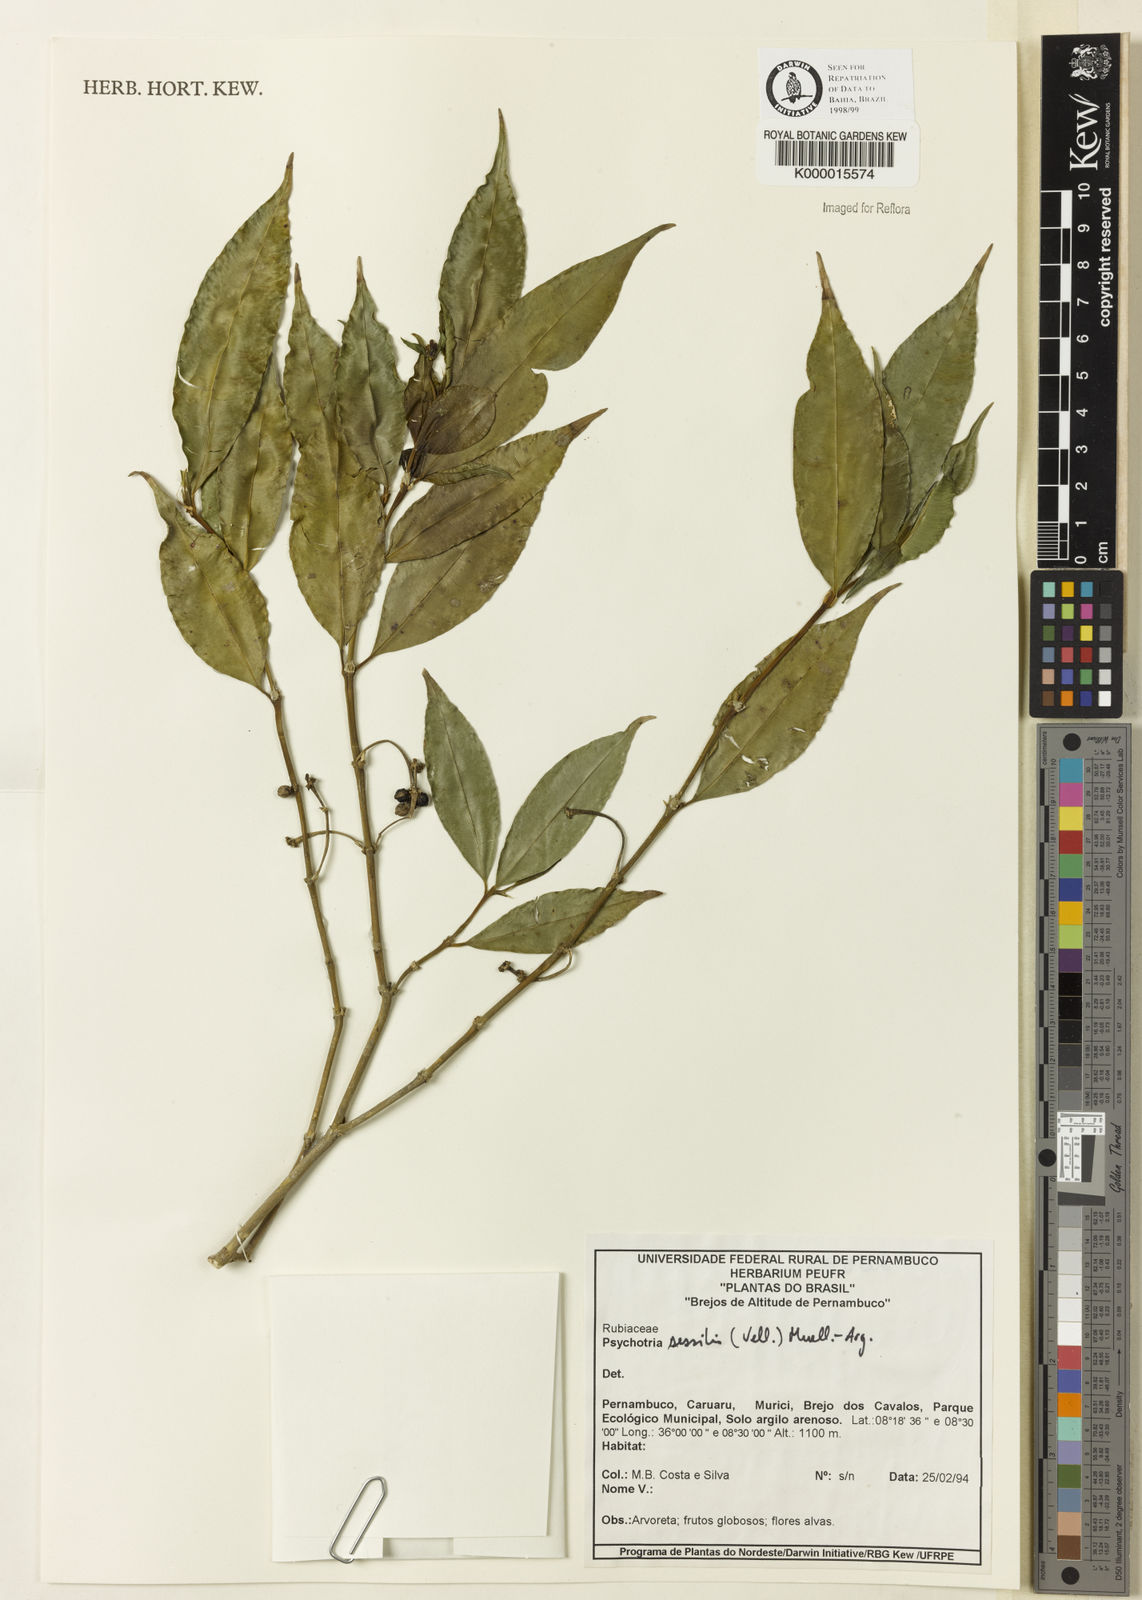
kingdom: Plantae
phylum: Tracheophyta
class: Magnoliopsida
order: Gentianales
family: Rubiaceae
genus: Psychotria
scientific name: Psychotria
